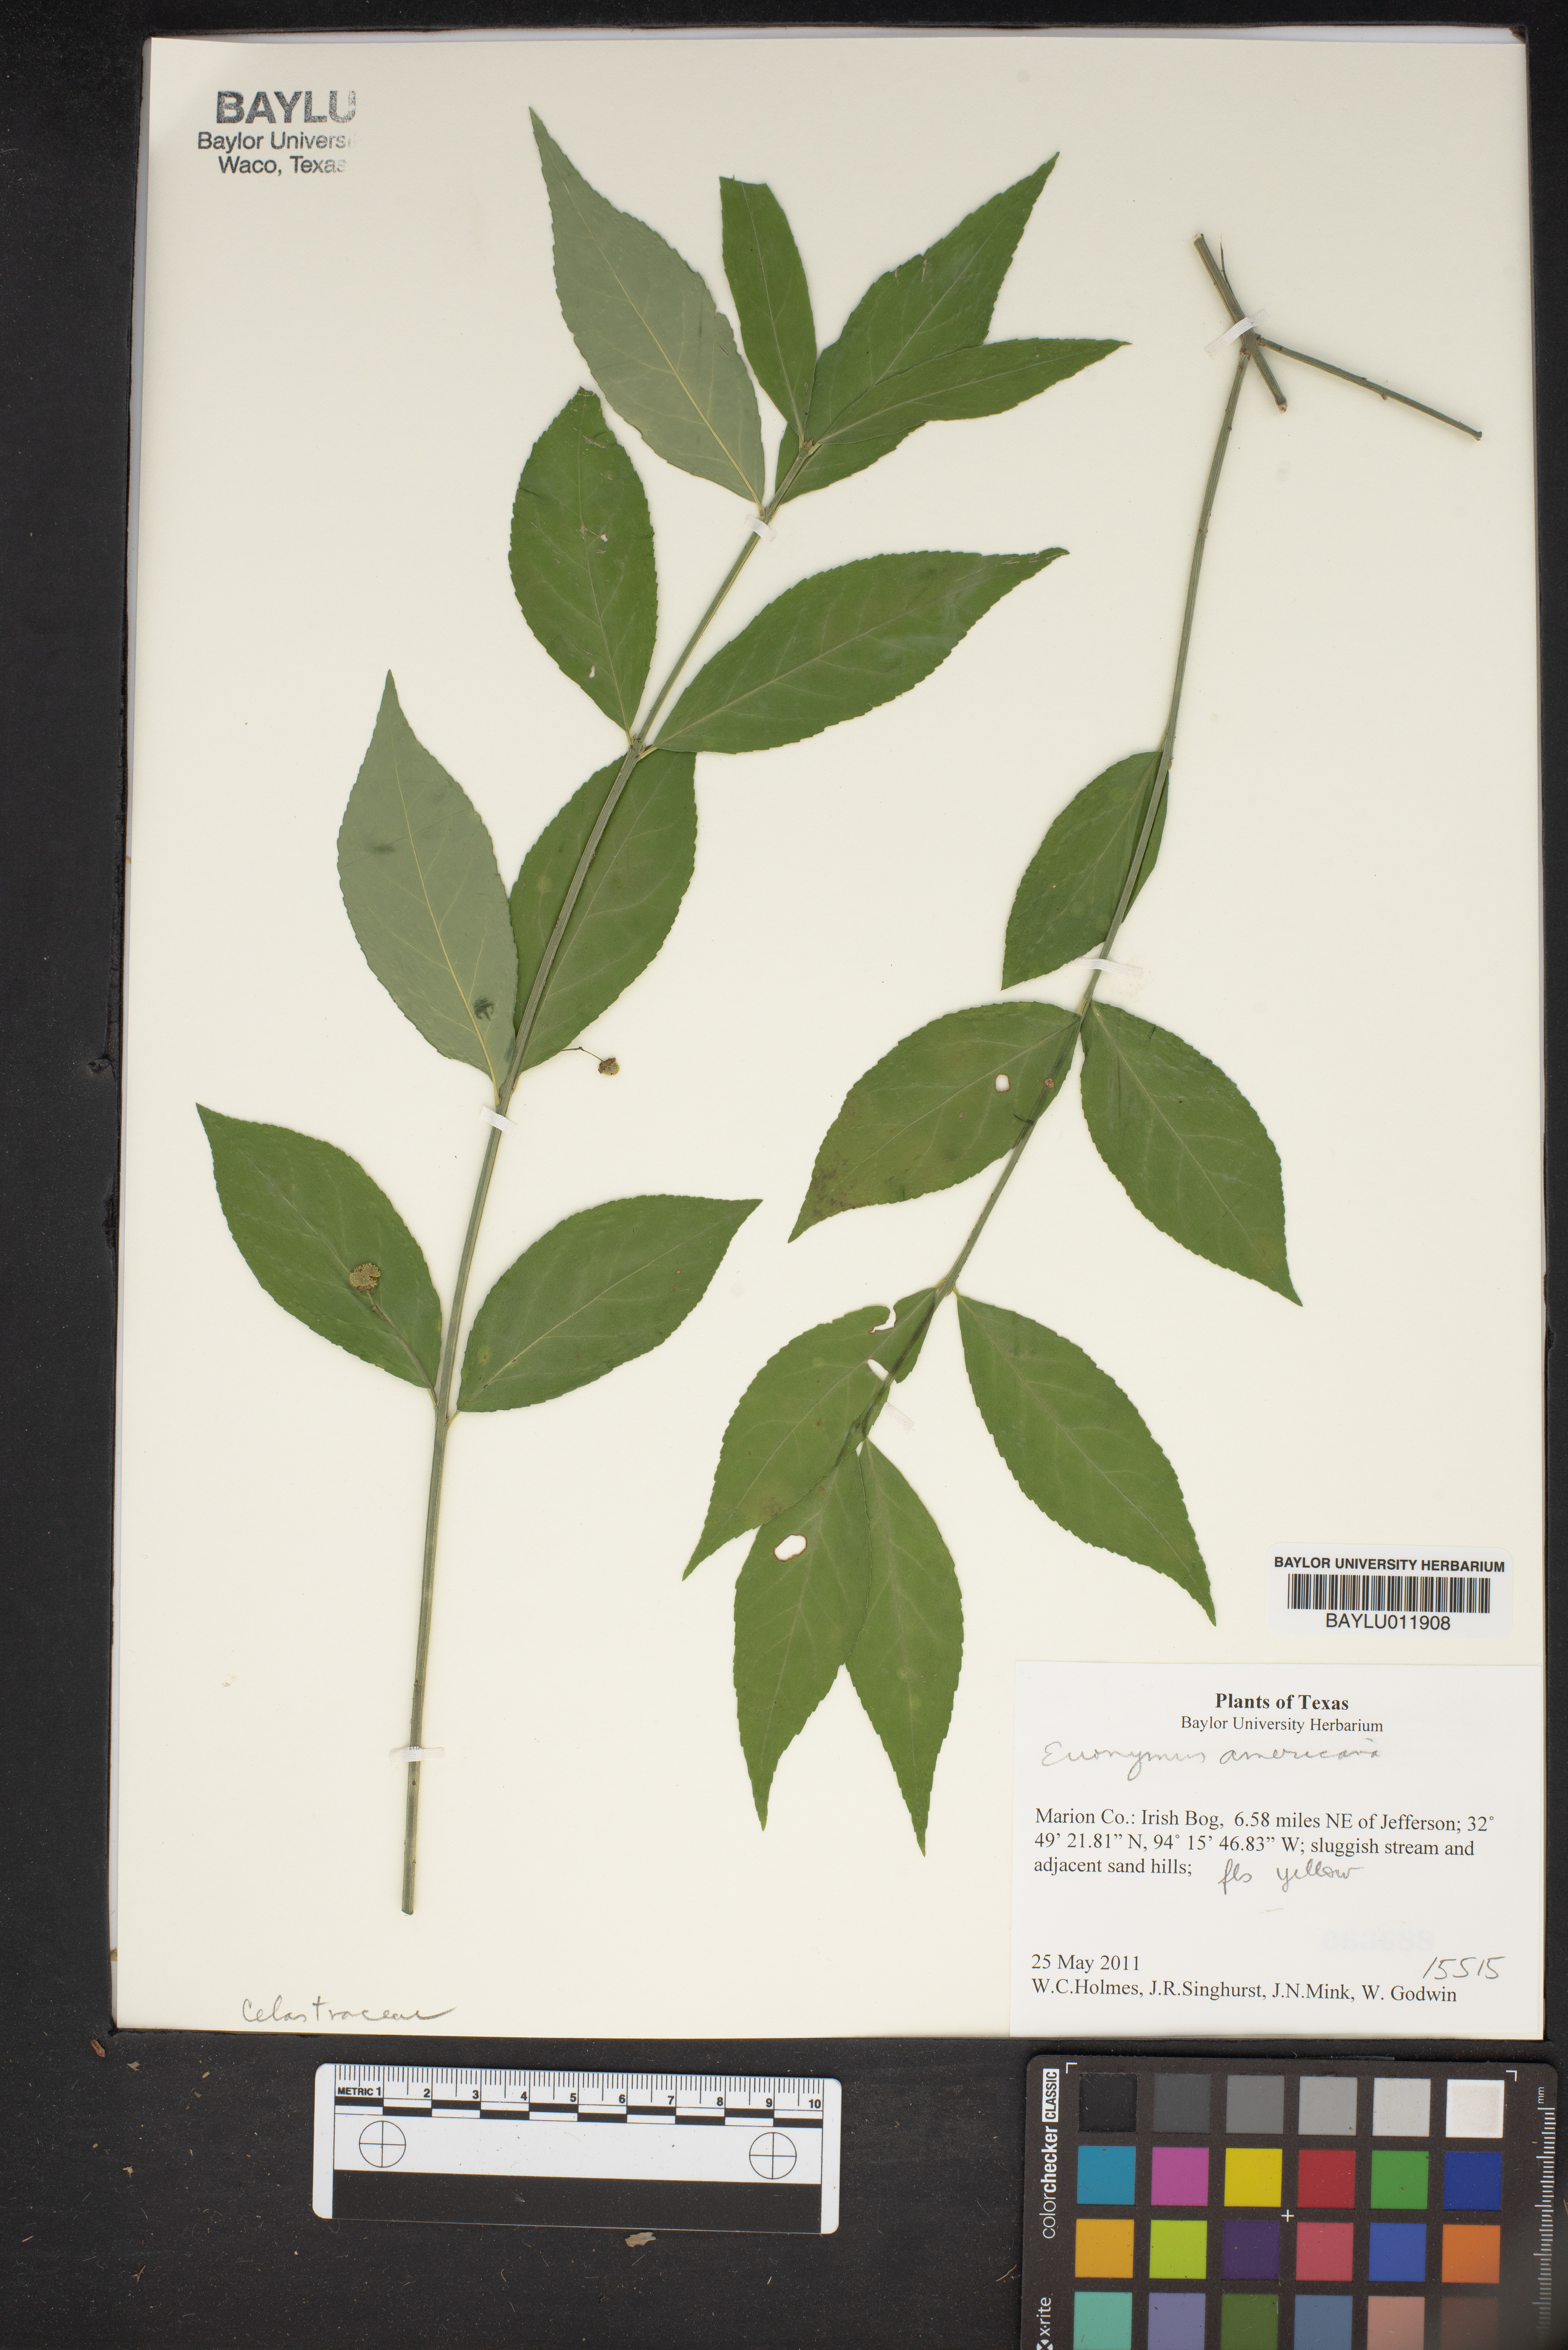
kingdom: Plantae
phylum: Tracheophyta
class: Magnoliopsida
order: Celastrales
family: Celastraceae
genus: Euonymus
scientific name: Euonymus americanus
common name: Bursting-heart
